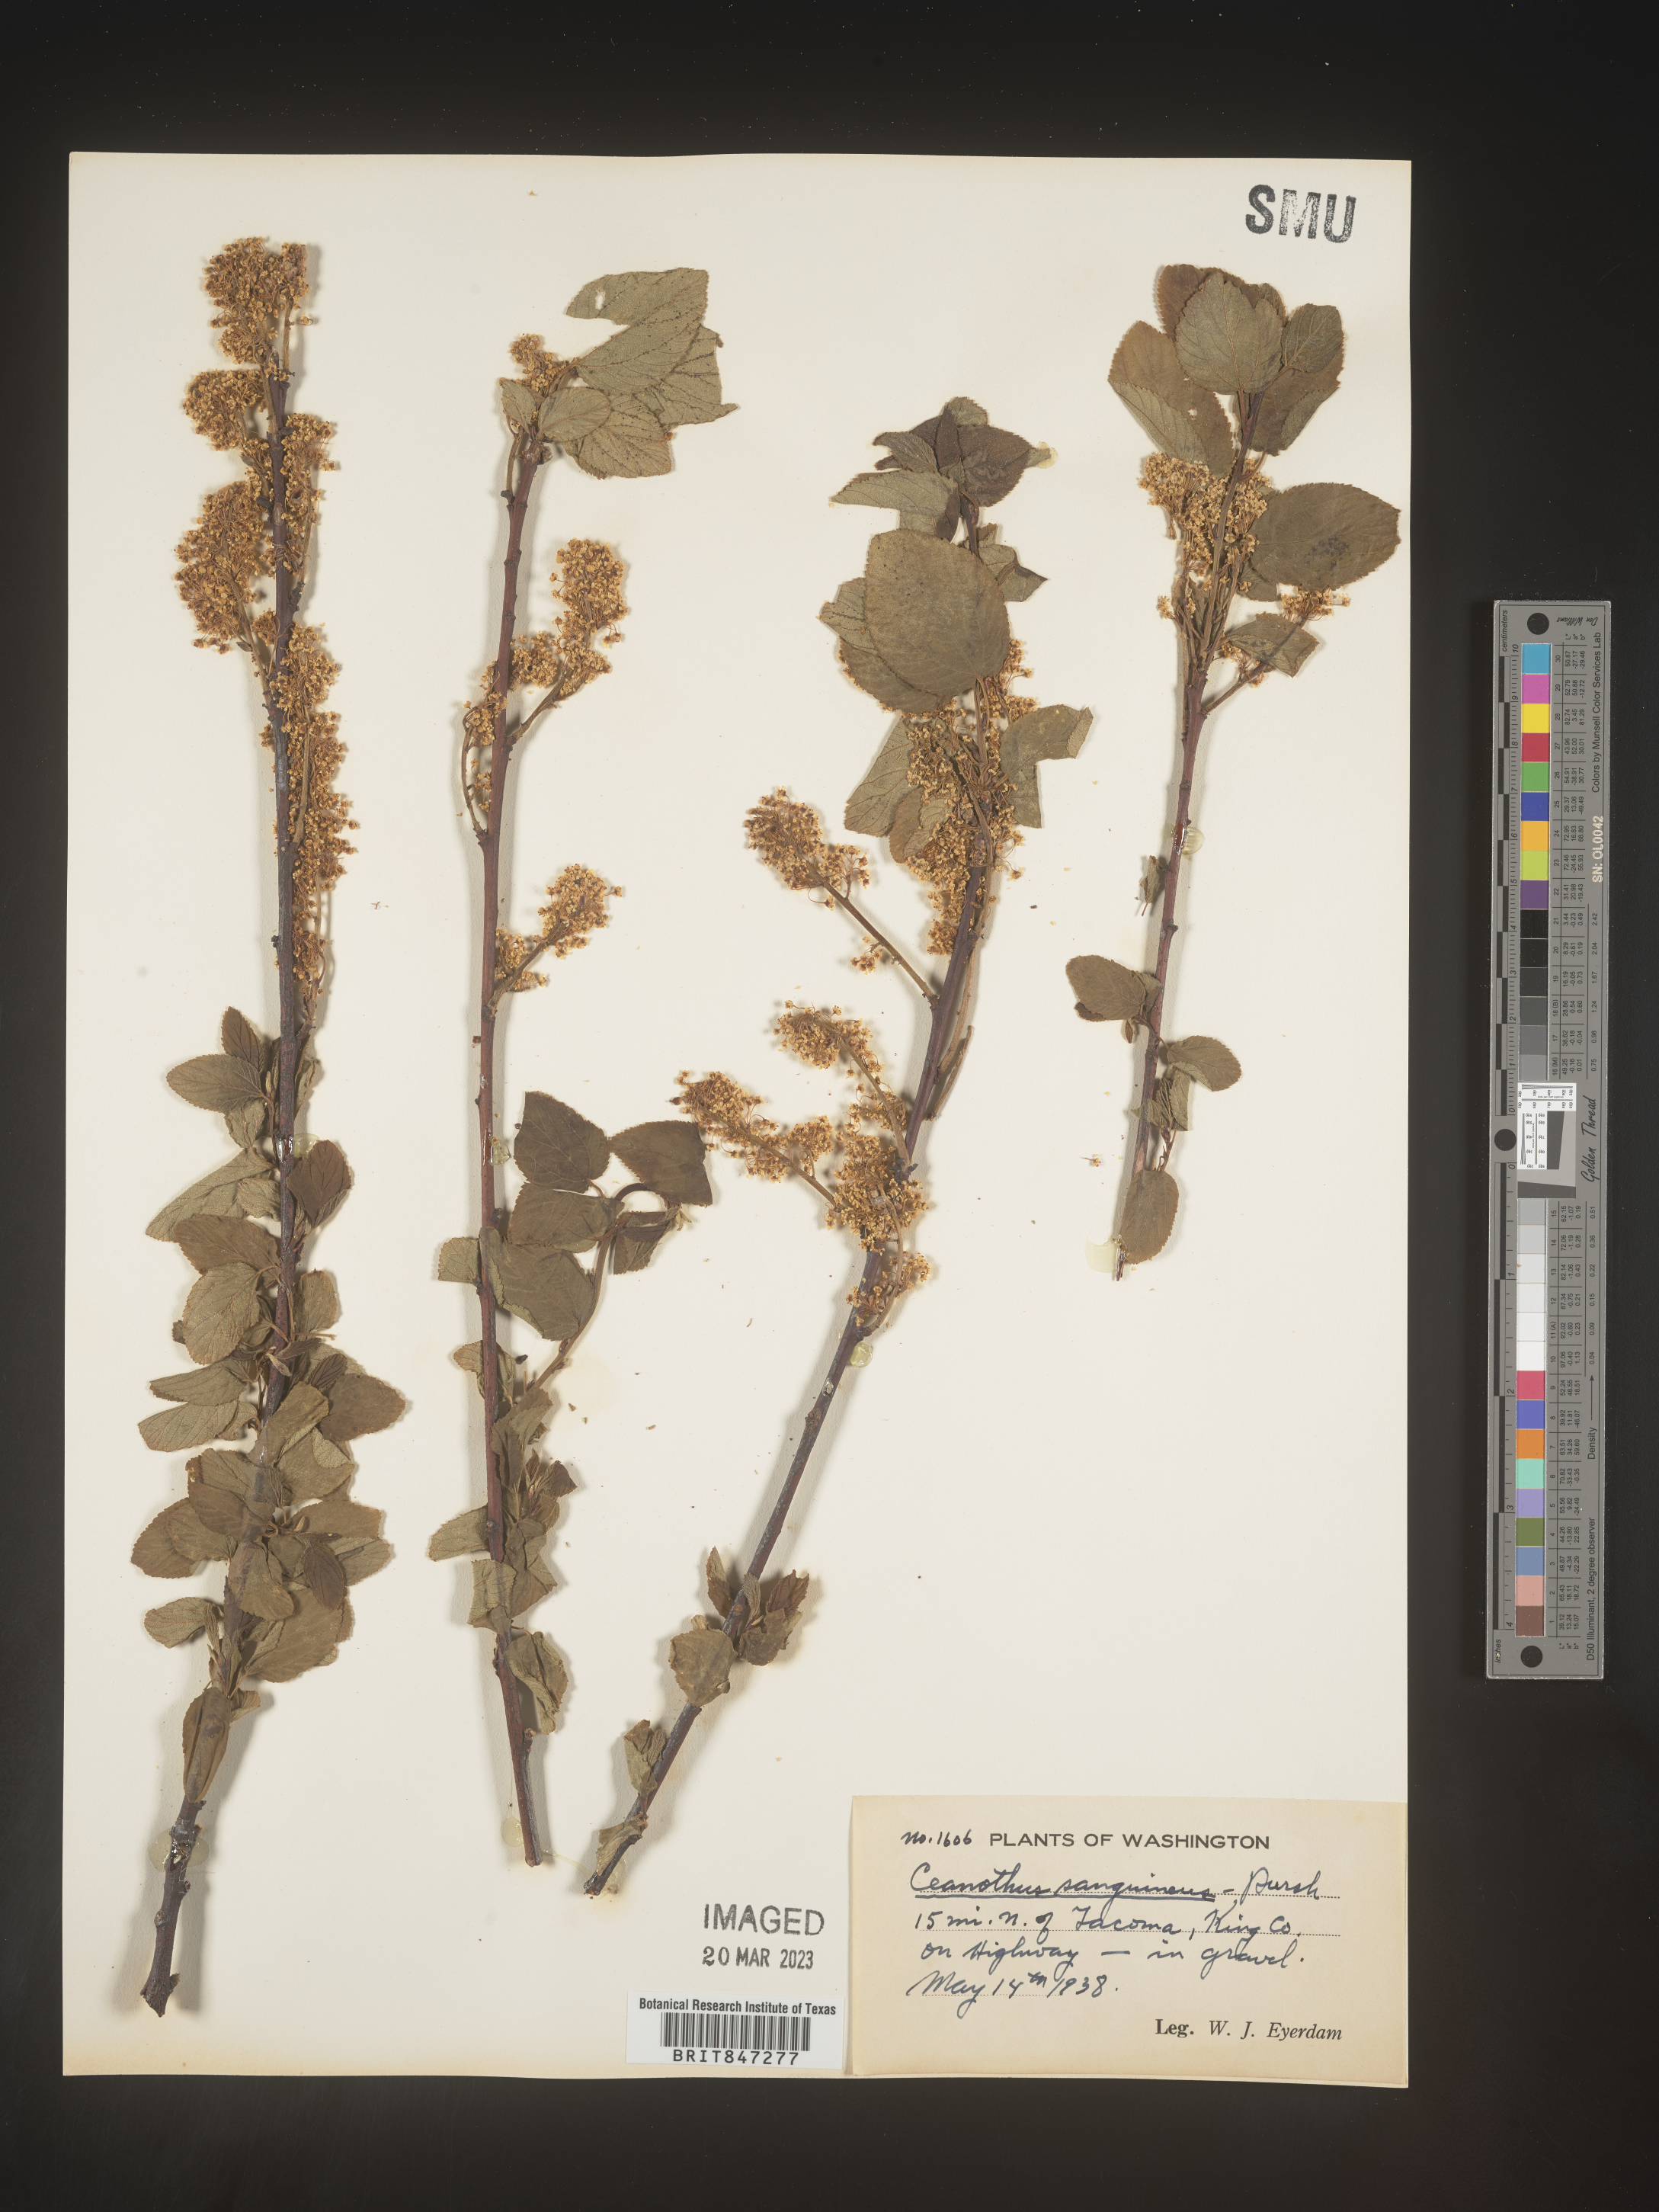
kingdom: Plantae
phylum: Tracheophyta
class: Magnoliopsida
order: Rosales
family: Rhamnaceae
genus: Ceanothus
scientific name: Ceanothus
